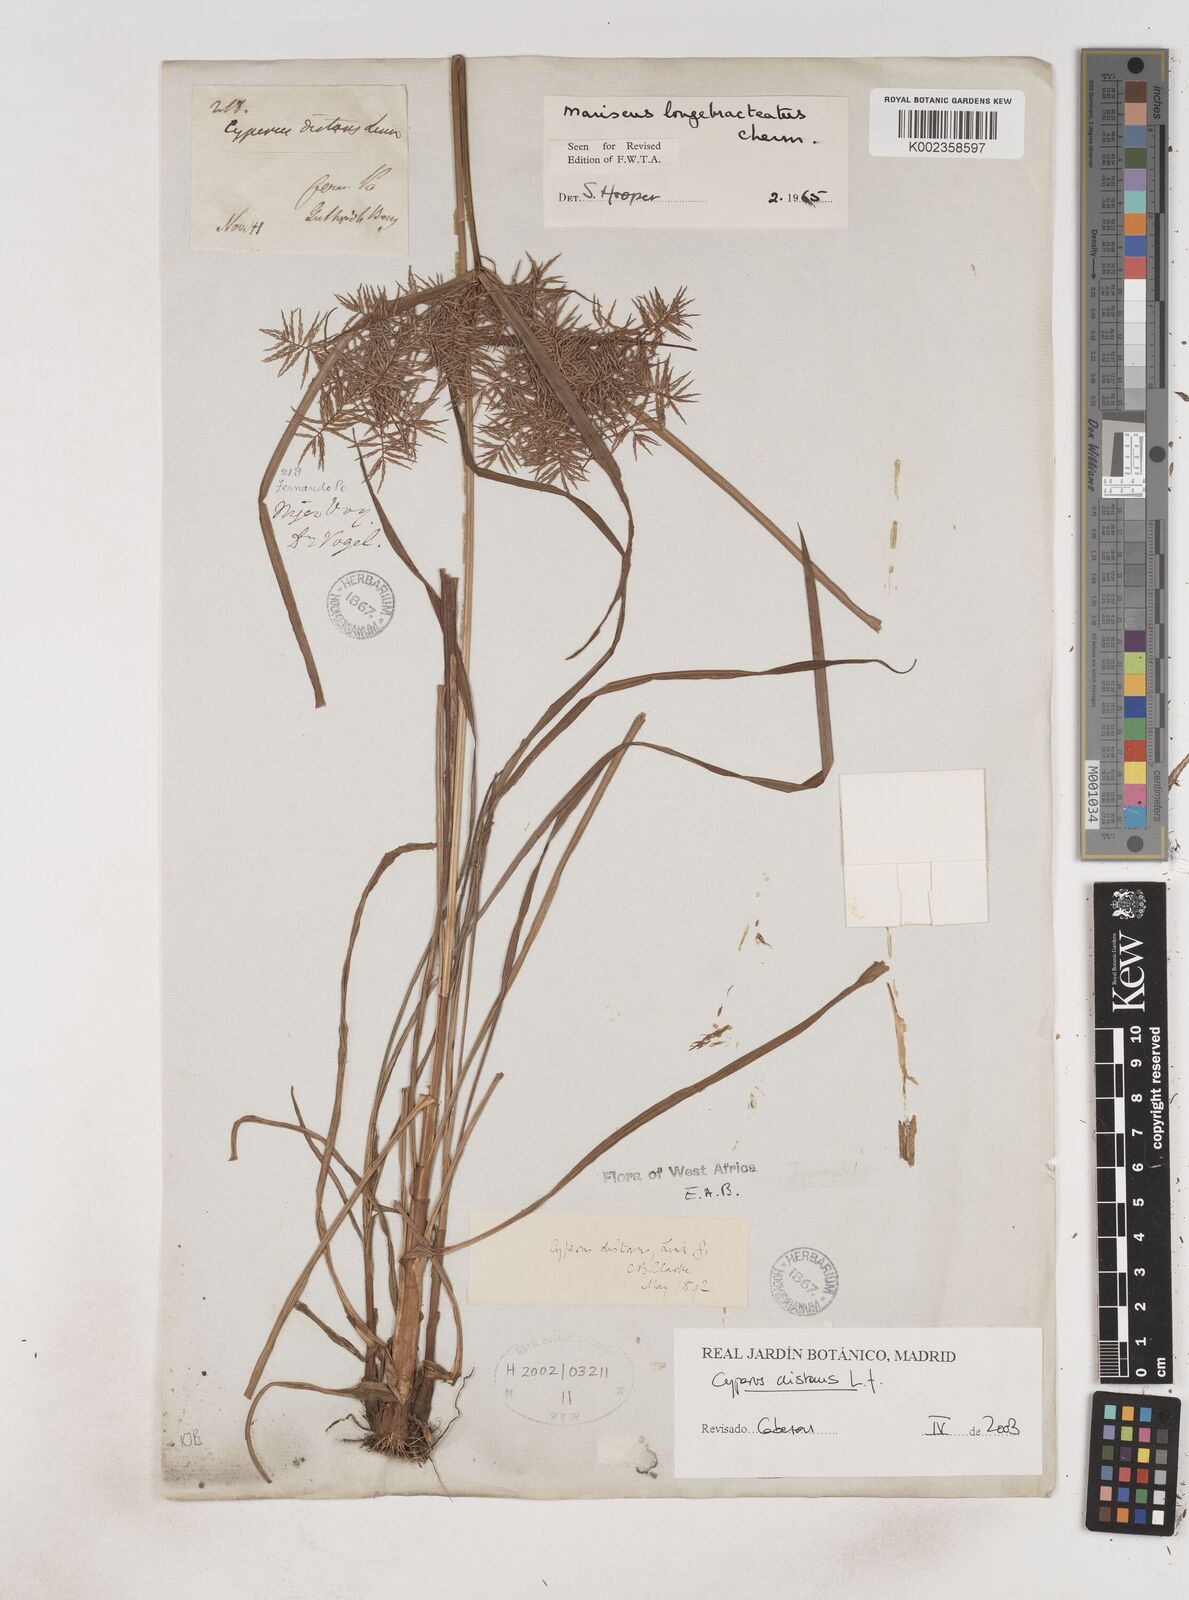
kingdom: Plantae
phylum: Tracheophyta
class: Liliopsida
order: Poales
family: Cyperaceae
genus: Cyperus
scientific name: Cyperus distans
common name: Slender cyperus
